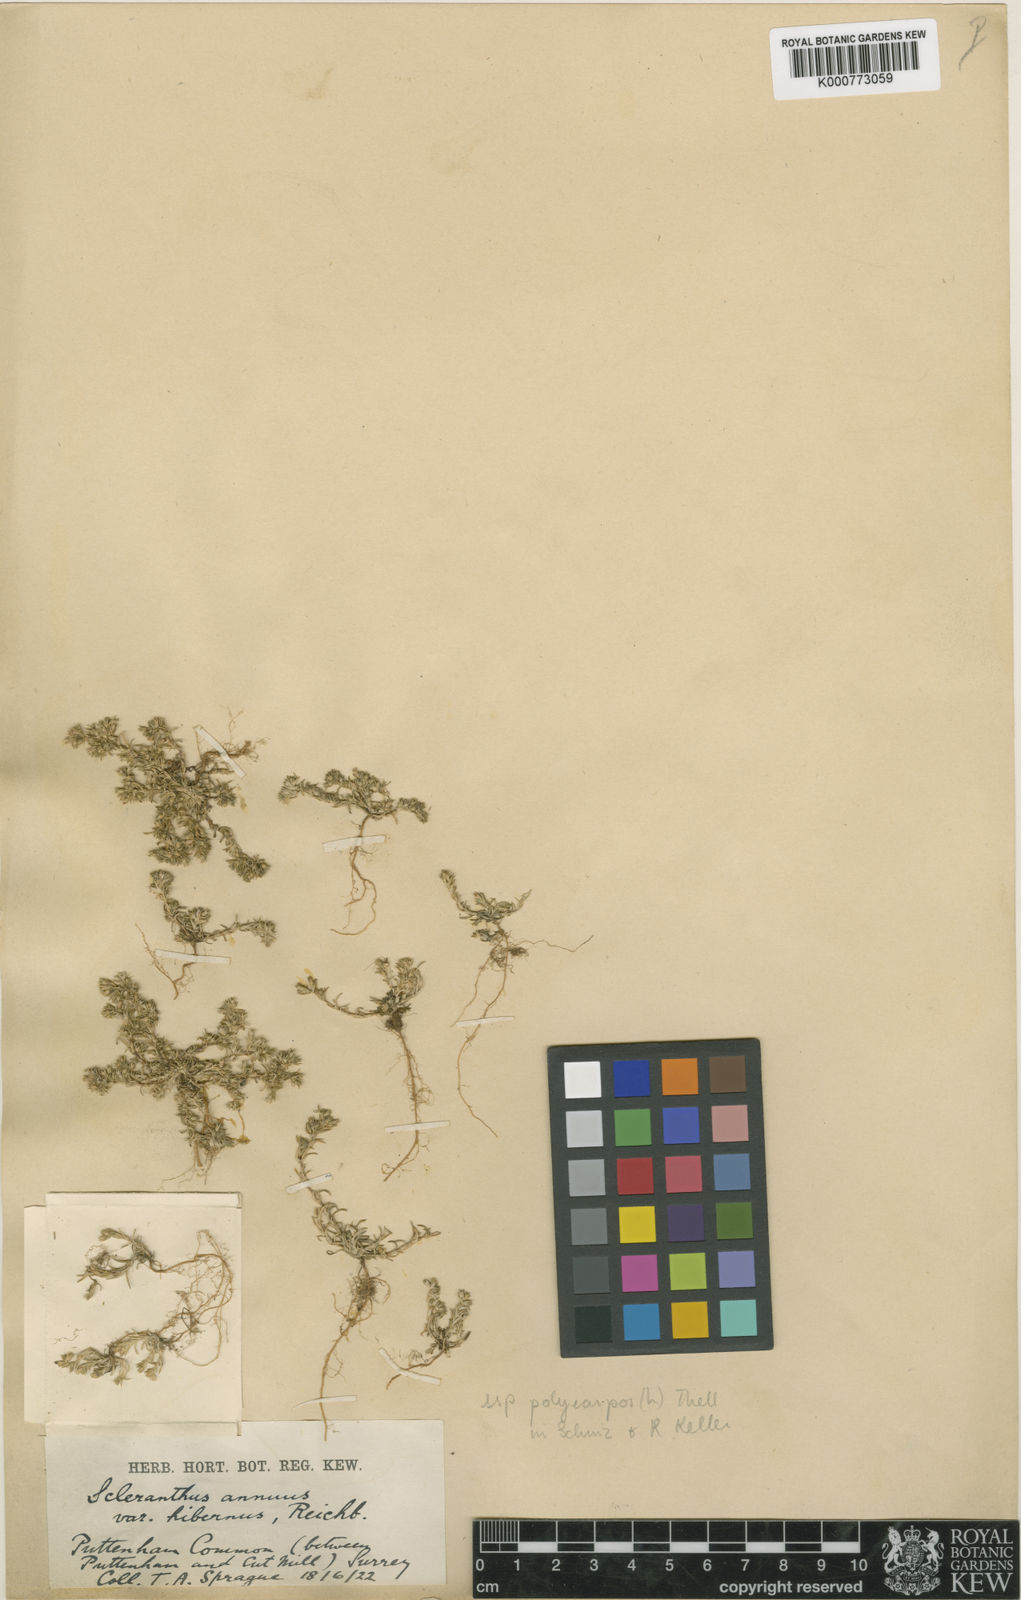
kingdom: Plantae
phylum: Tracheophyta
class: Magnoliopsida
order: Caryophyllales
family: Caryophyllaceae
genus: Scleranthus
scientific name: Scleranthus annuus
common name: Annual knawel
